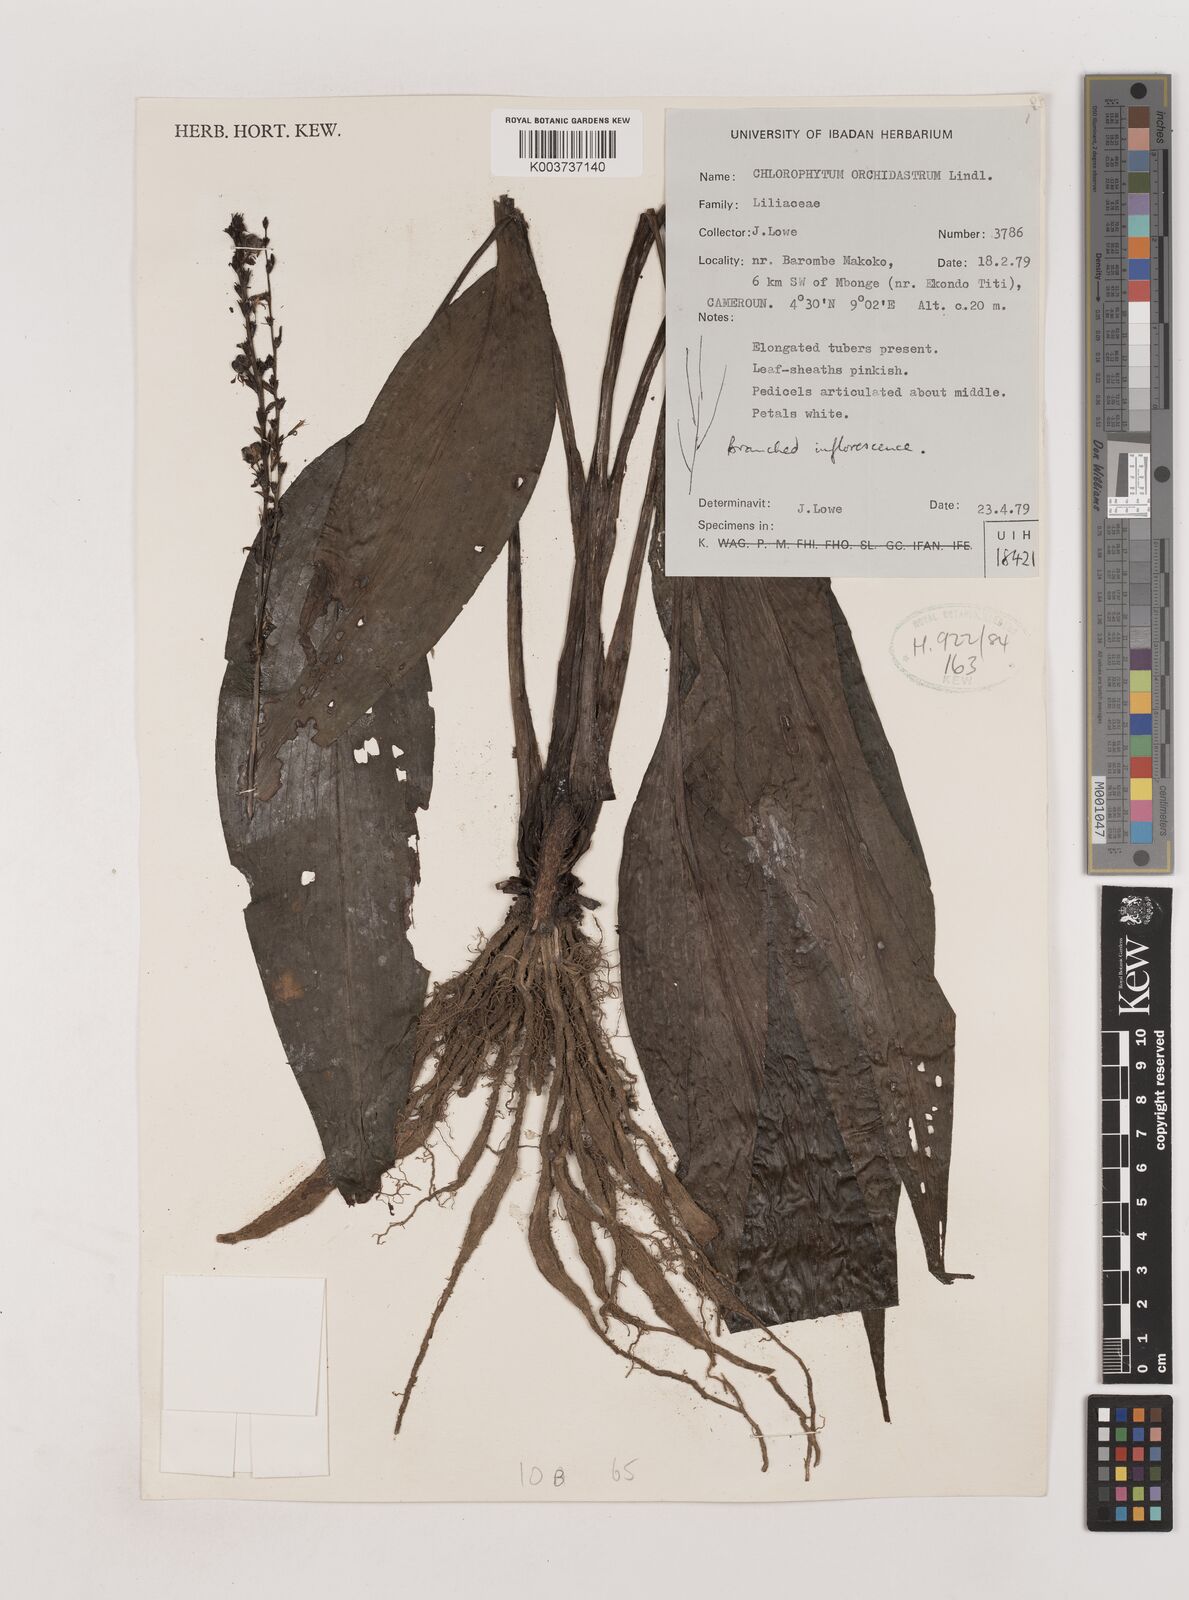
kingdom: Plantae
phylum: Tracheophyta
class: Liliopsida
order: Asparagales
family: Asparagaceae
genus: Chlorophytum
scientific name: Chlorophytum orchidastrum
